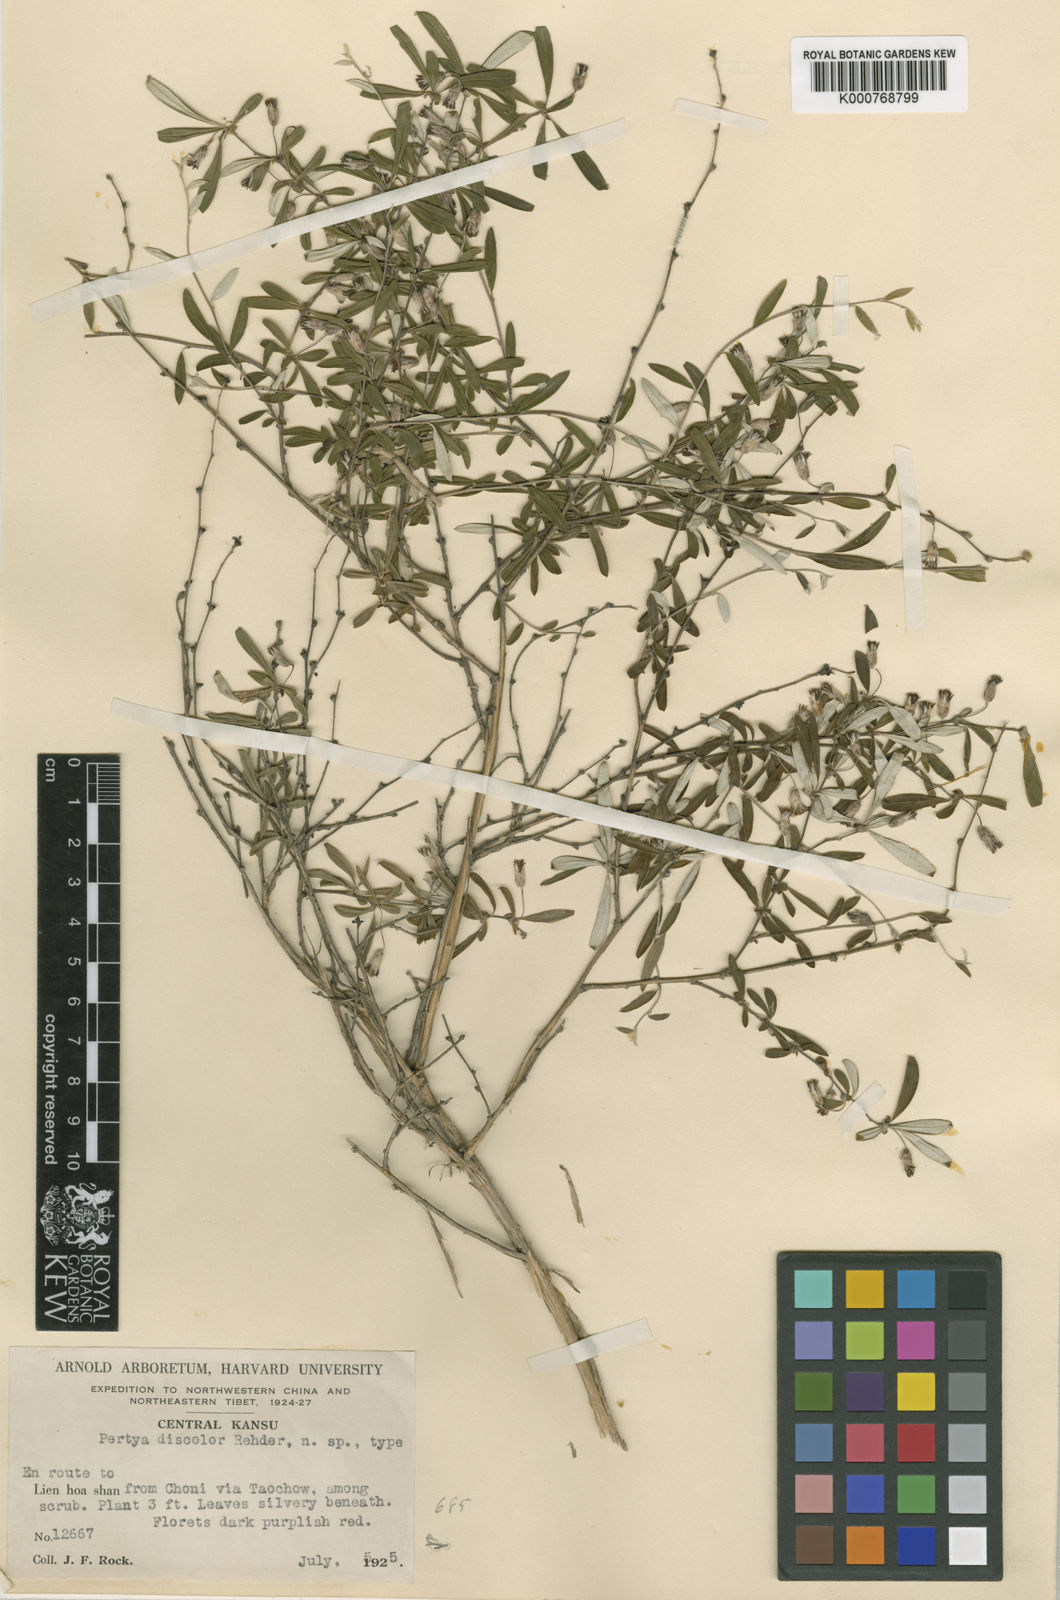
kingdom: Plantae
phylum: Tracheophyta
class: Magnoliopsida
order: Asterales
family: Asteraceae
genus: Pertya
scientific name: Pertya scandens
